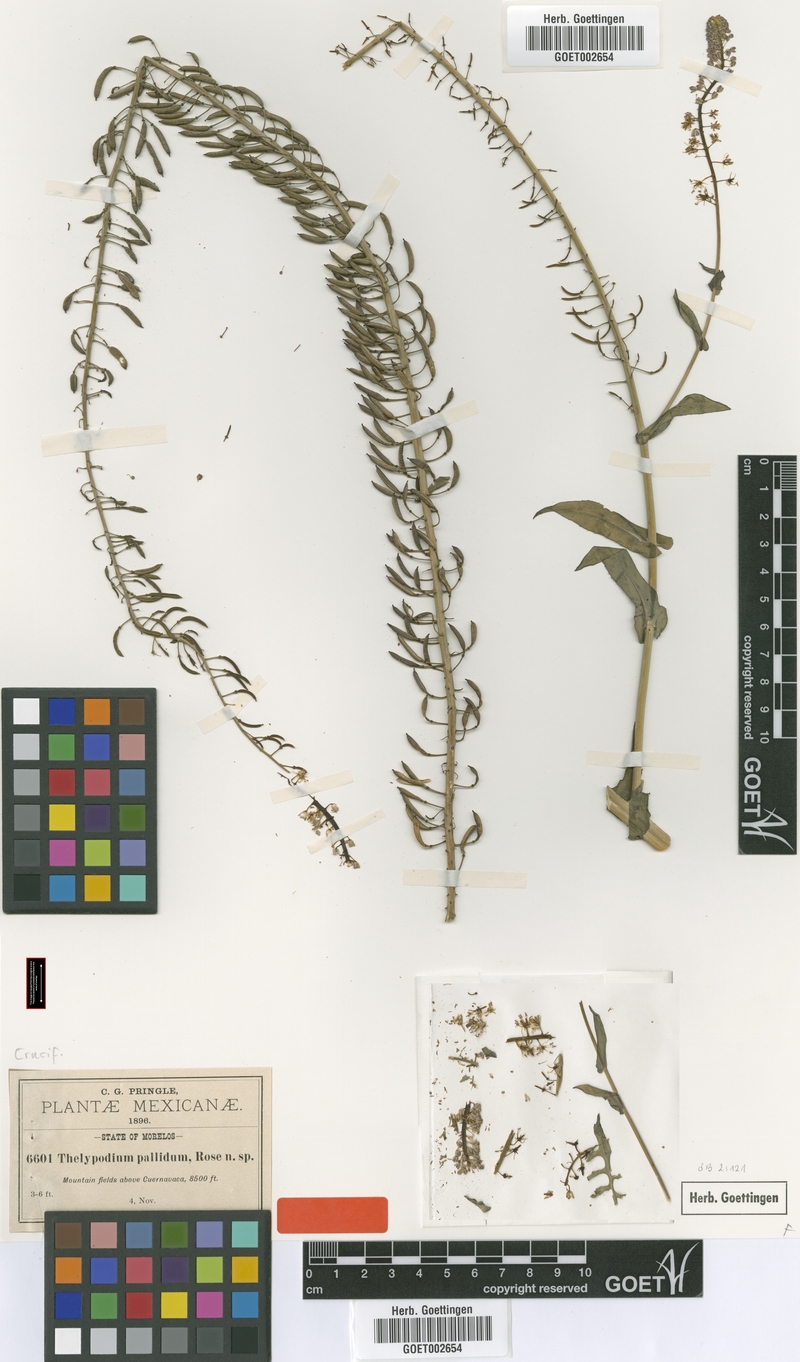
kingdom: Plantae
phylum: Tracheophyta
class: Magnoliopsida
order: Brassicales
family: Brassicaceae
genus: Romanschulzia
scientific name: Romanschulzia arabiformis
